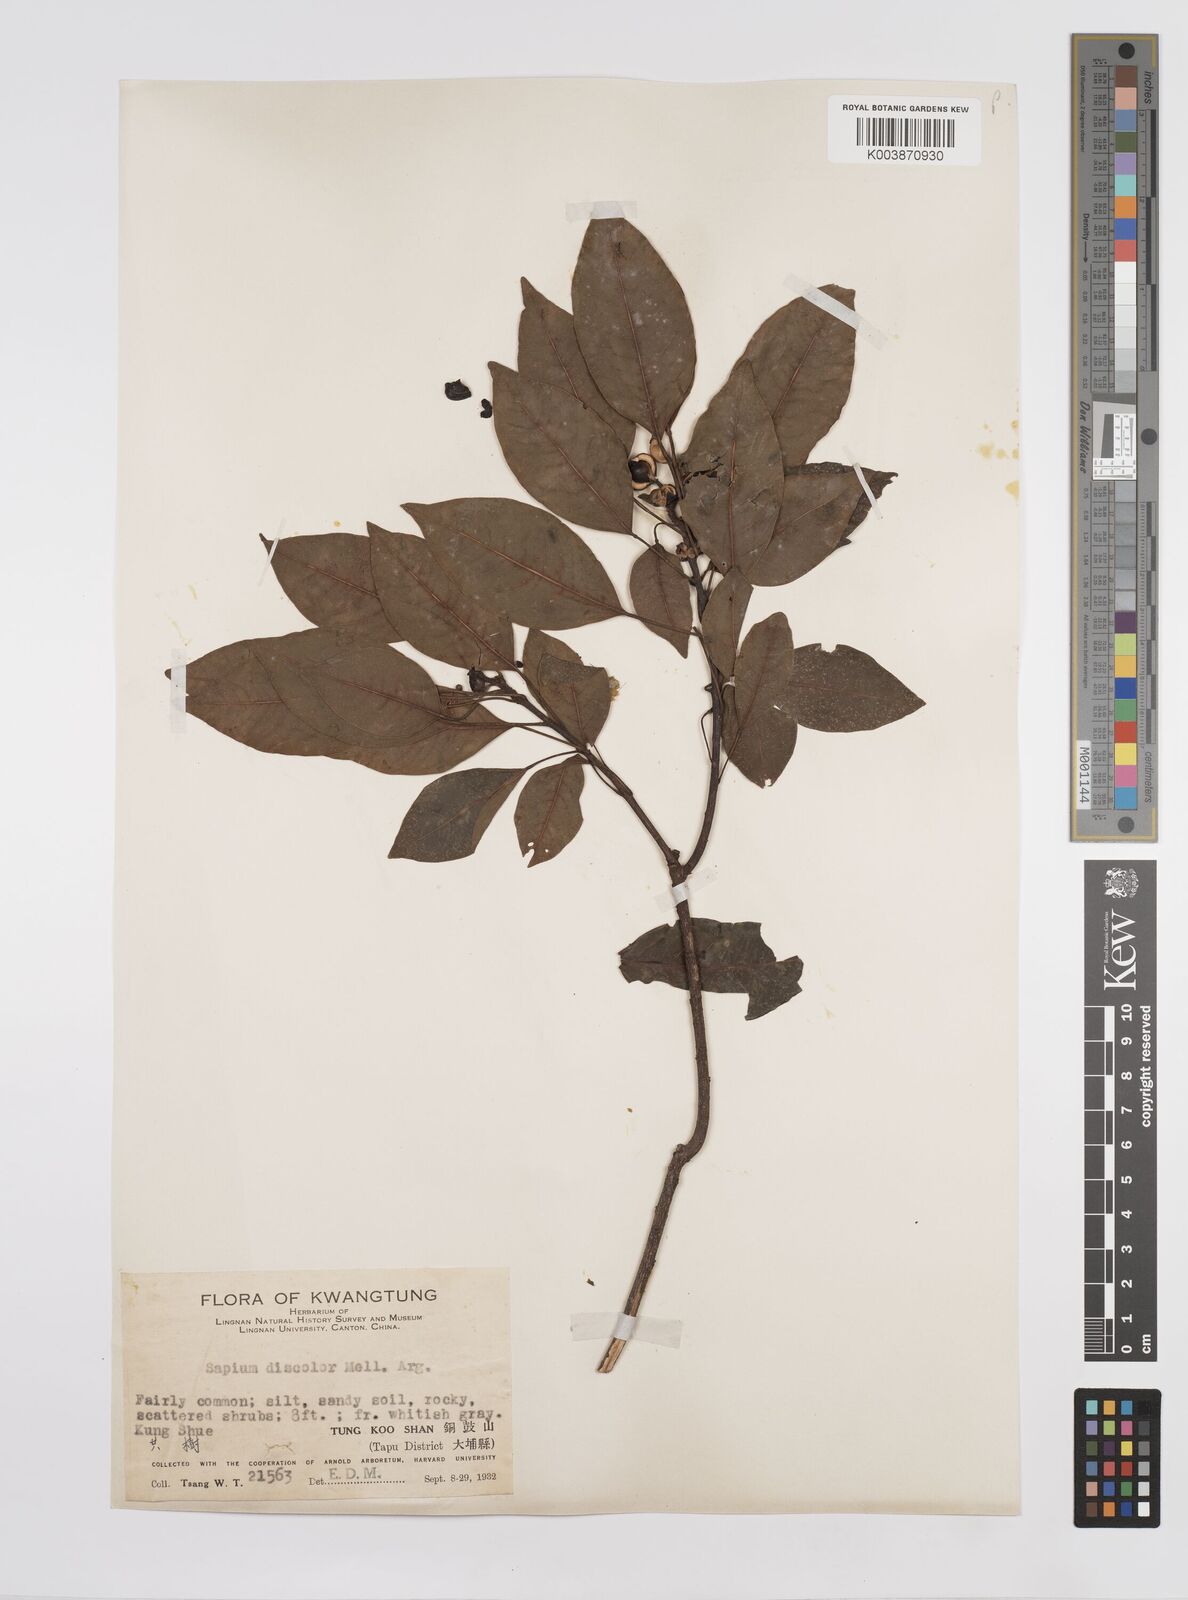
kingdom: Plantae
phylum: Tracheophyta
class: Magnoliopsida
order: Malpighiales
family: Euphorbiaceae
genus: Triadica
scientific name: Triadica cochinchinensis
